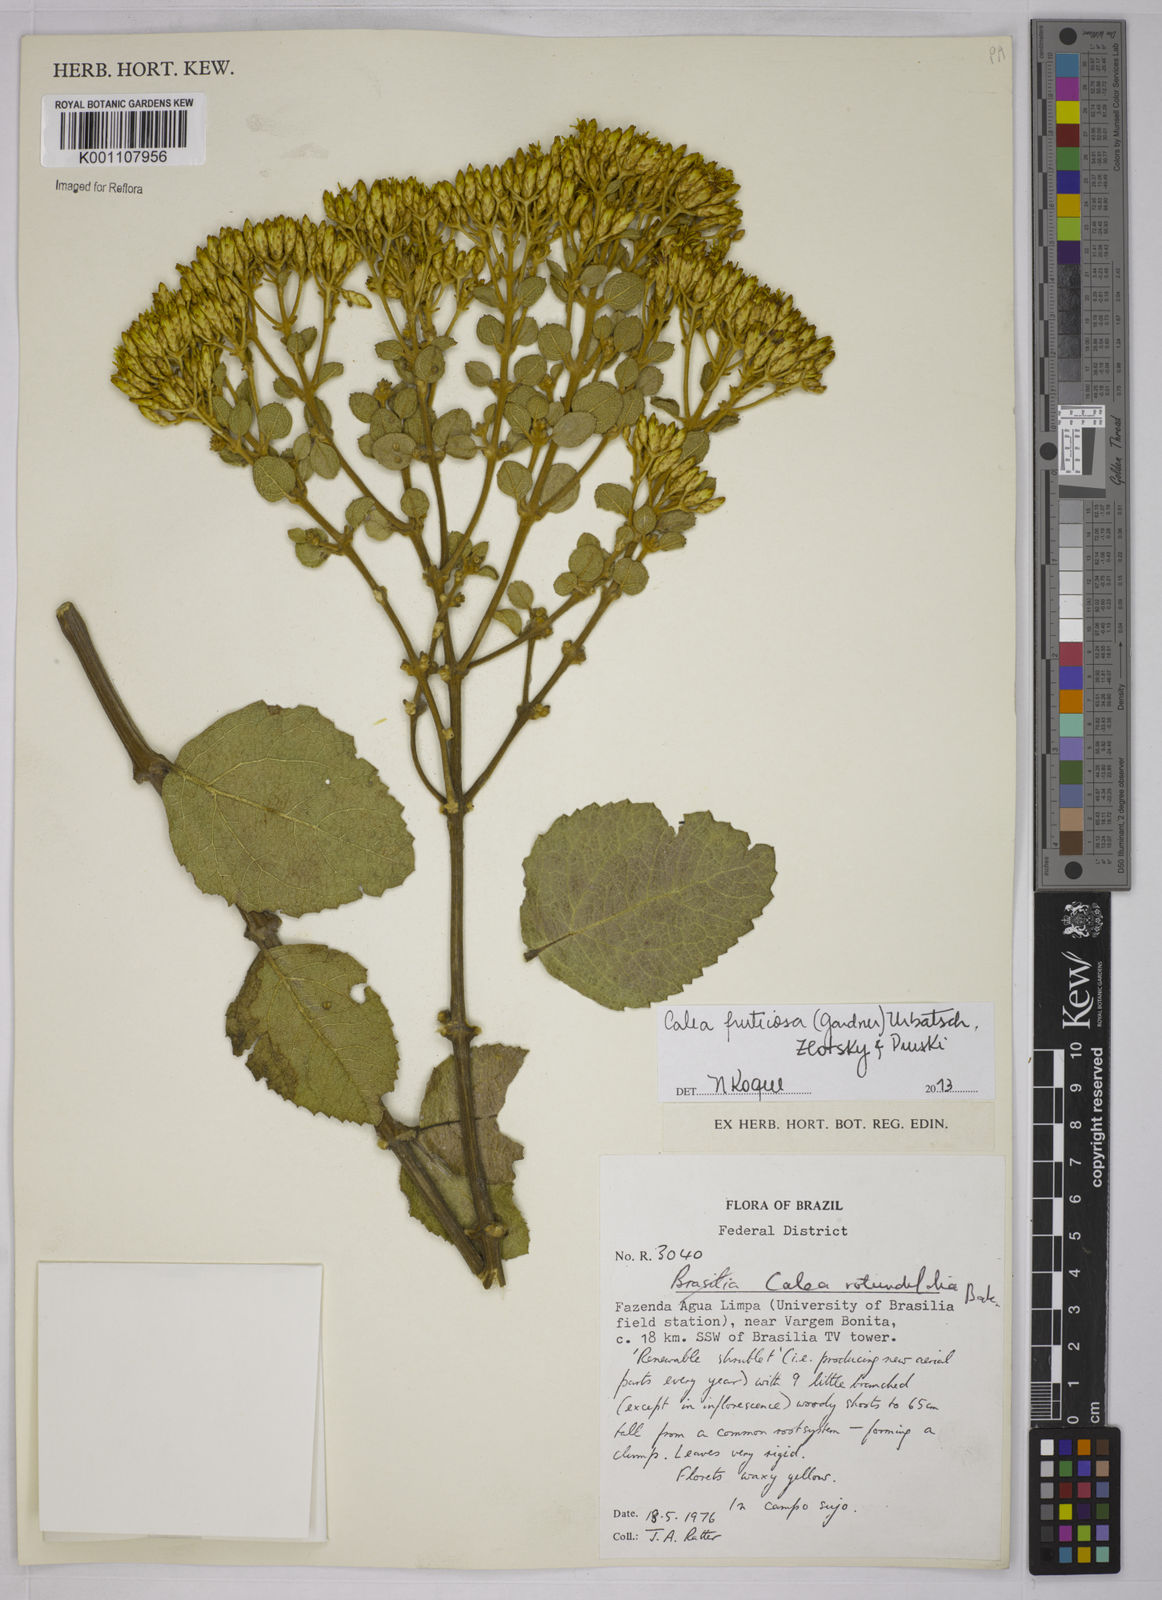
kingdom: Plantae
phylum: Tracheophyta
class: Magnoliopsida
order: Asterales
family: Asteraceae
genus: Calea
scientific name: Calea fruticosa
